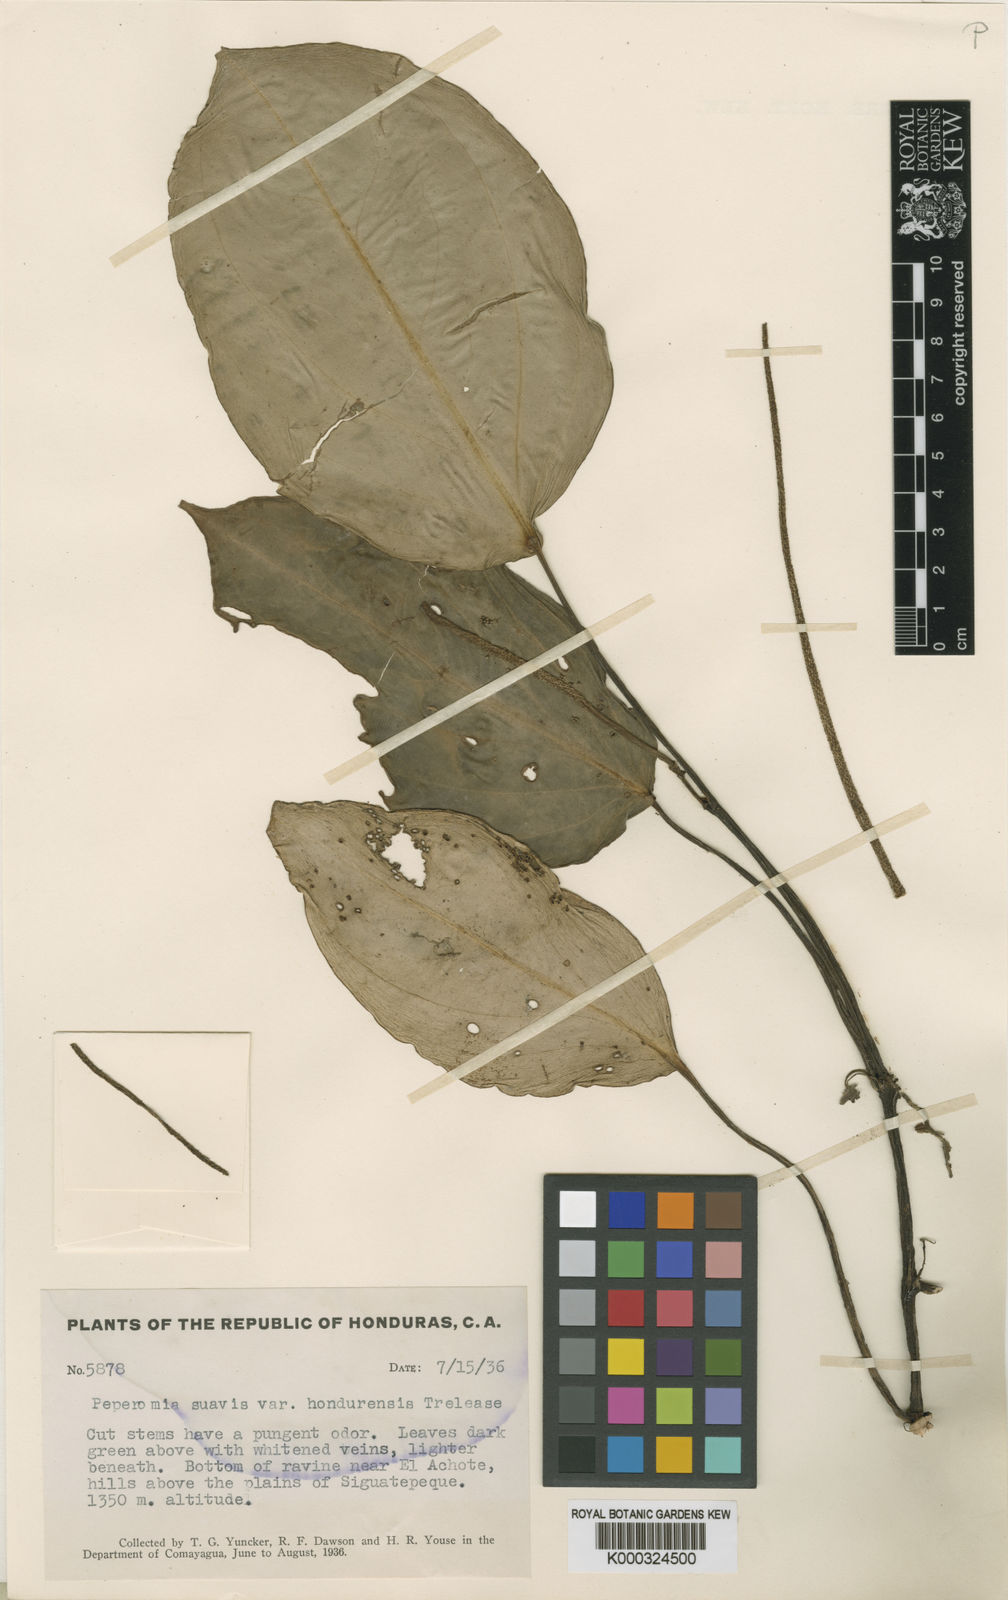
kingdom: Plantae
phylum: Tracheophyta
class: Magnoliopsida
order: Piperales
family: Piperaceae
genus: Peperomia
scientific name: Peperomia
